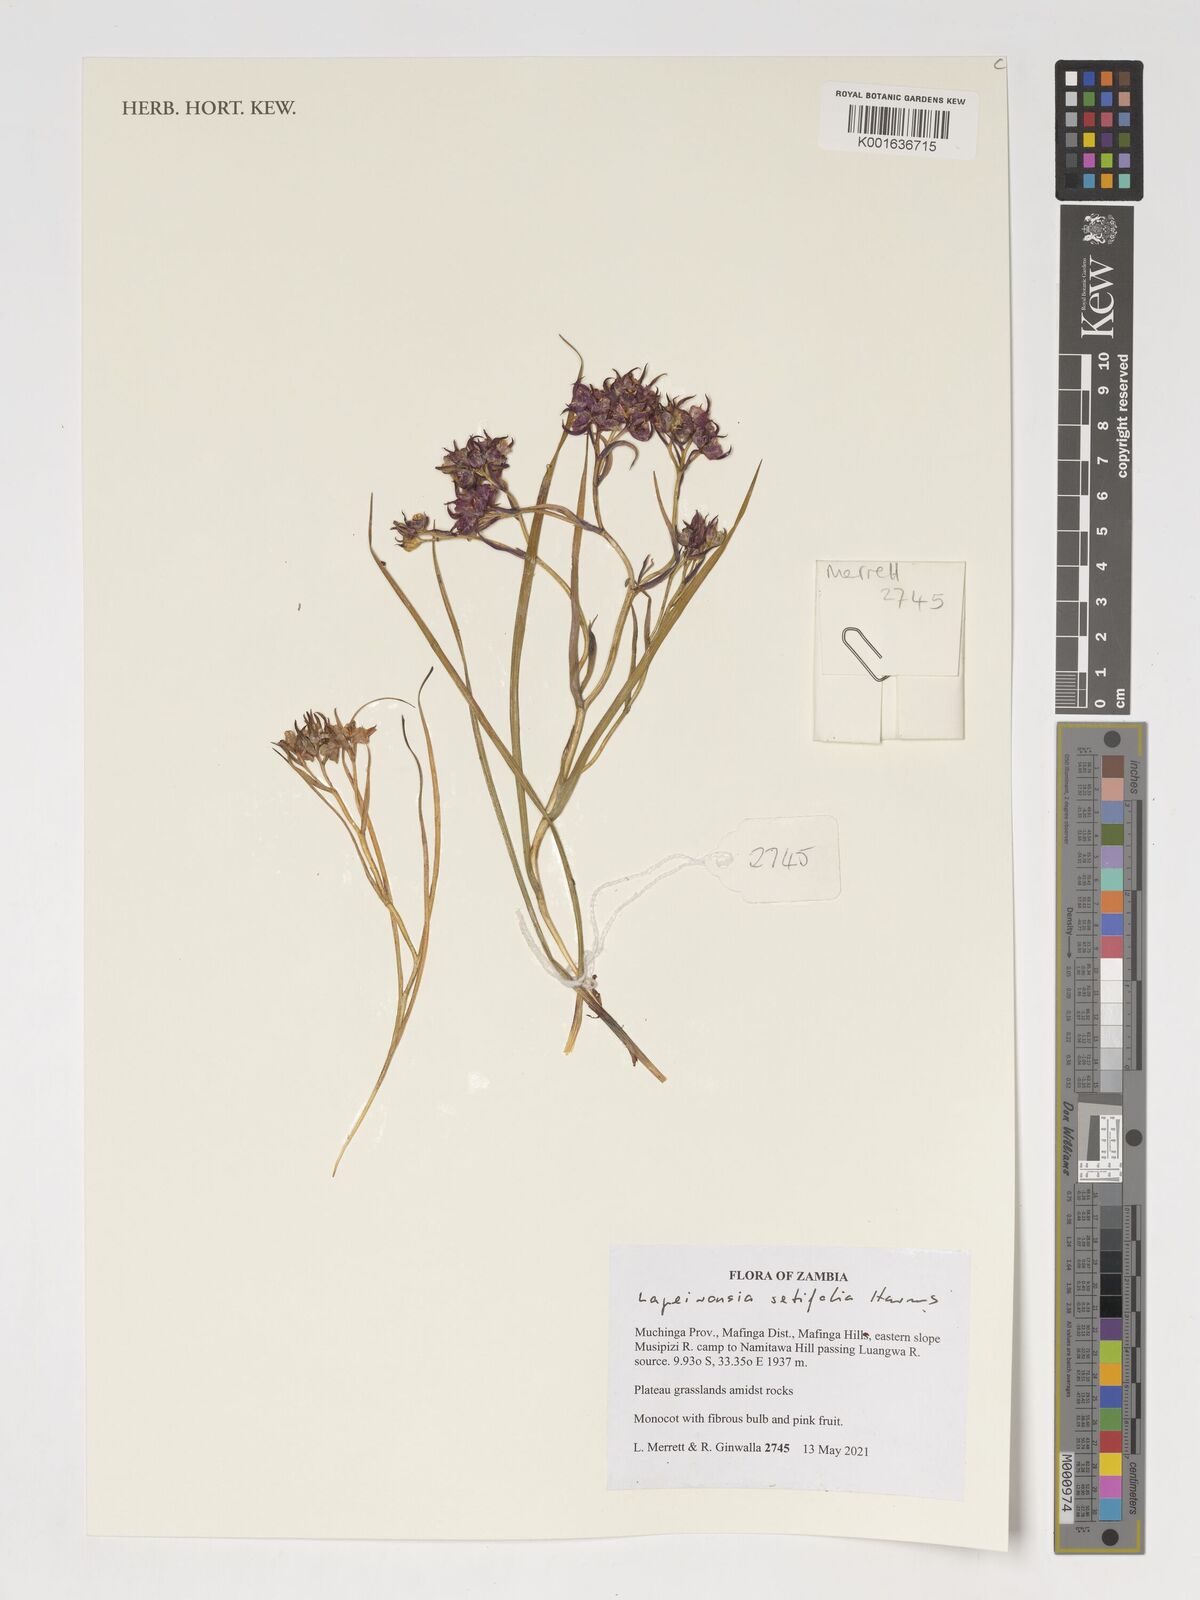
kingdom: Plantae
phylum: Tracheophyta
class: Liliopsida
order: Asparagales
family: Iridaceae
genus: Afrosolen
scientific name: Afrosolen setifolius
